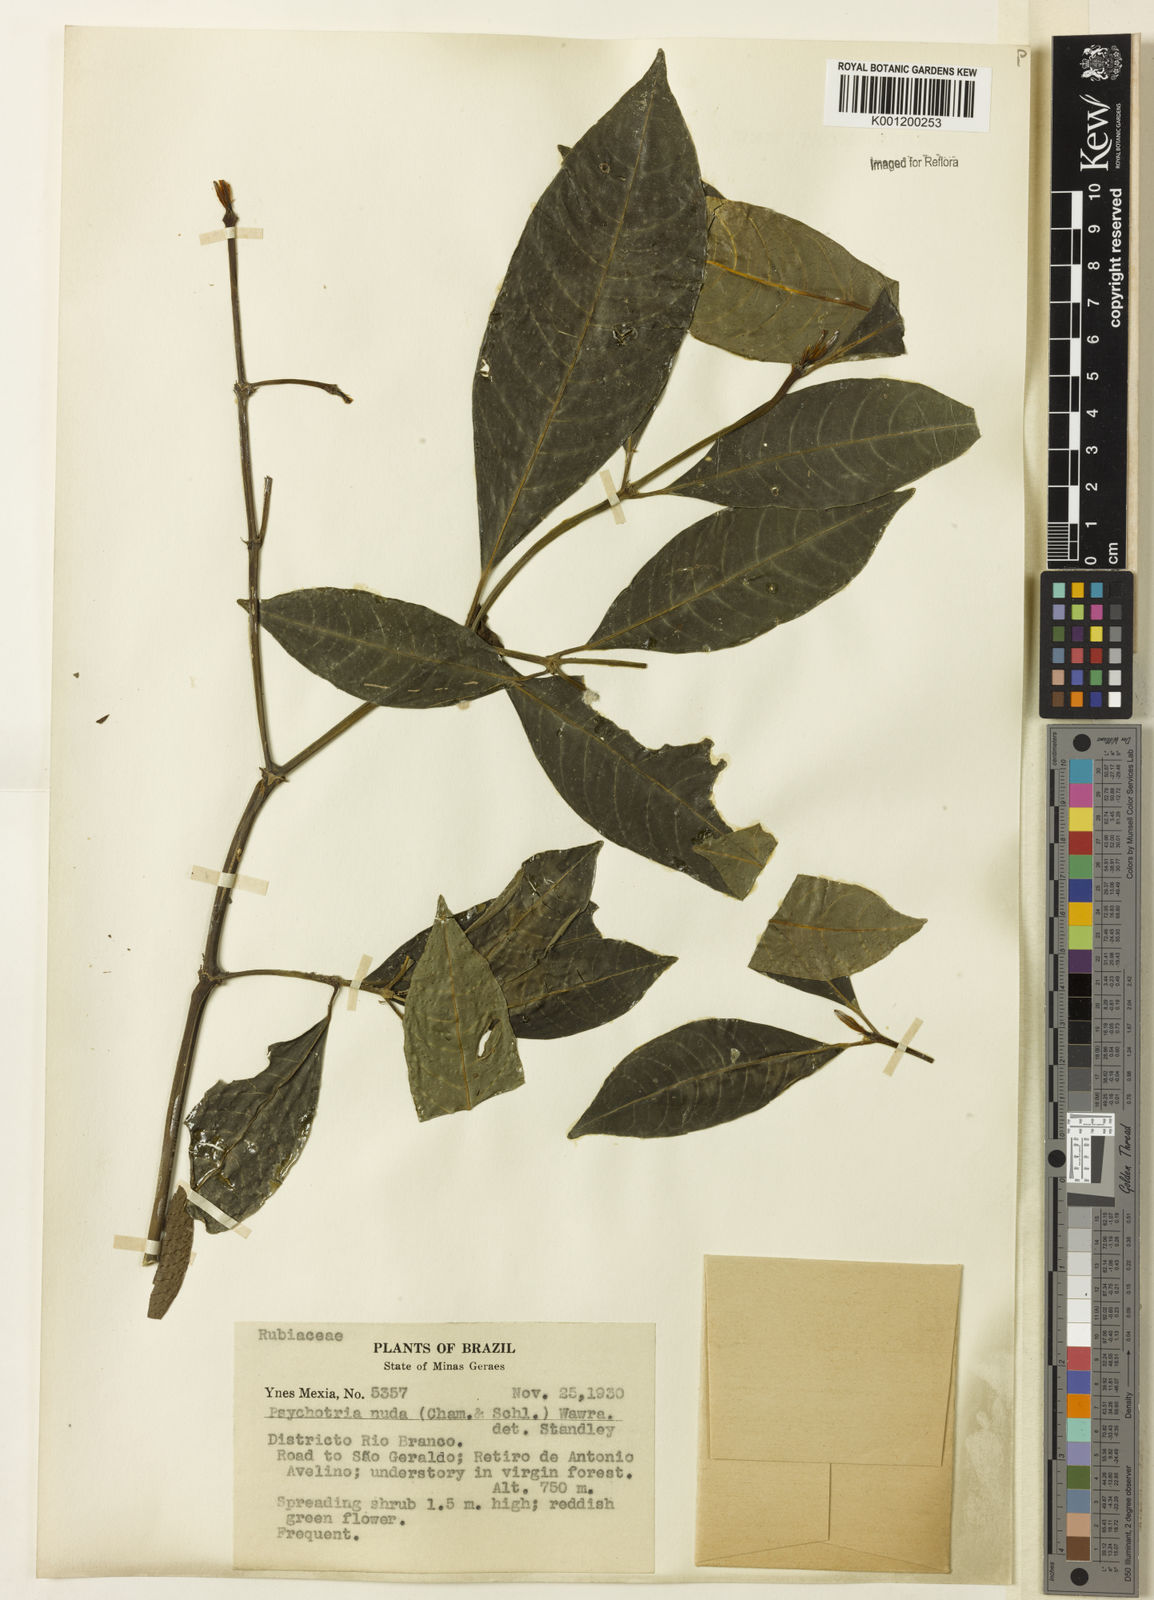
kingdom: Plantae
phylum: Tracheophyta
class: Magnoliopsida
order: Gentianales
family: Rubiaceae
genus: Psychotria
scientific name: Psychotria
